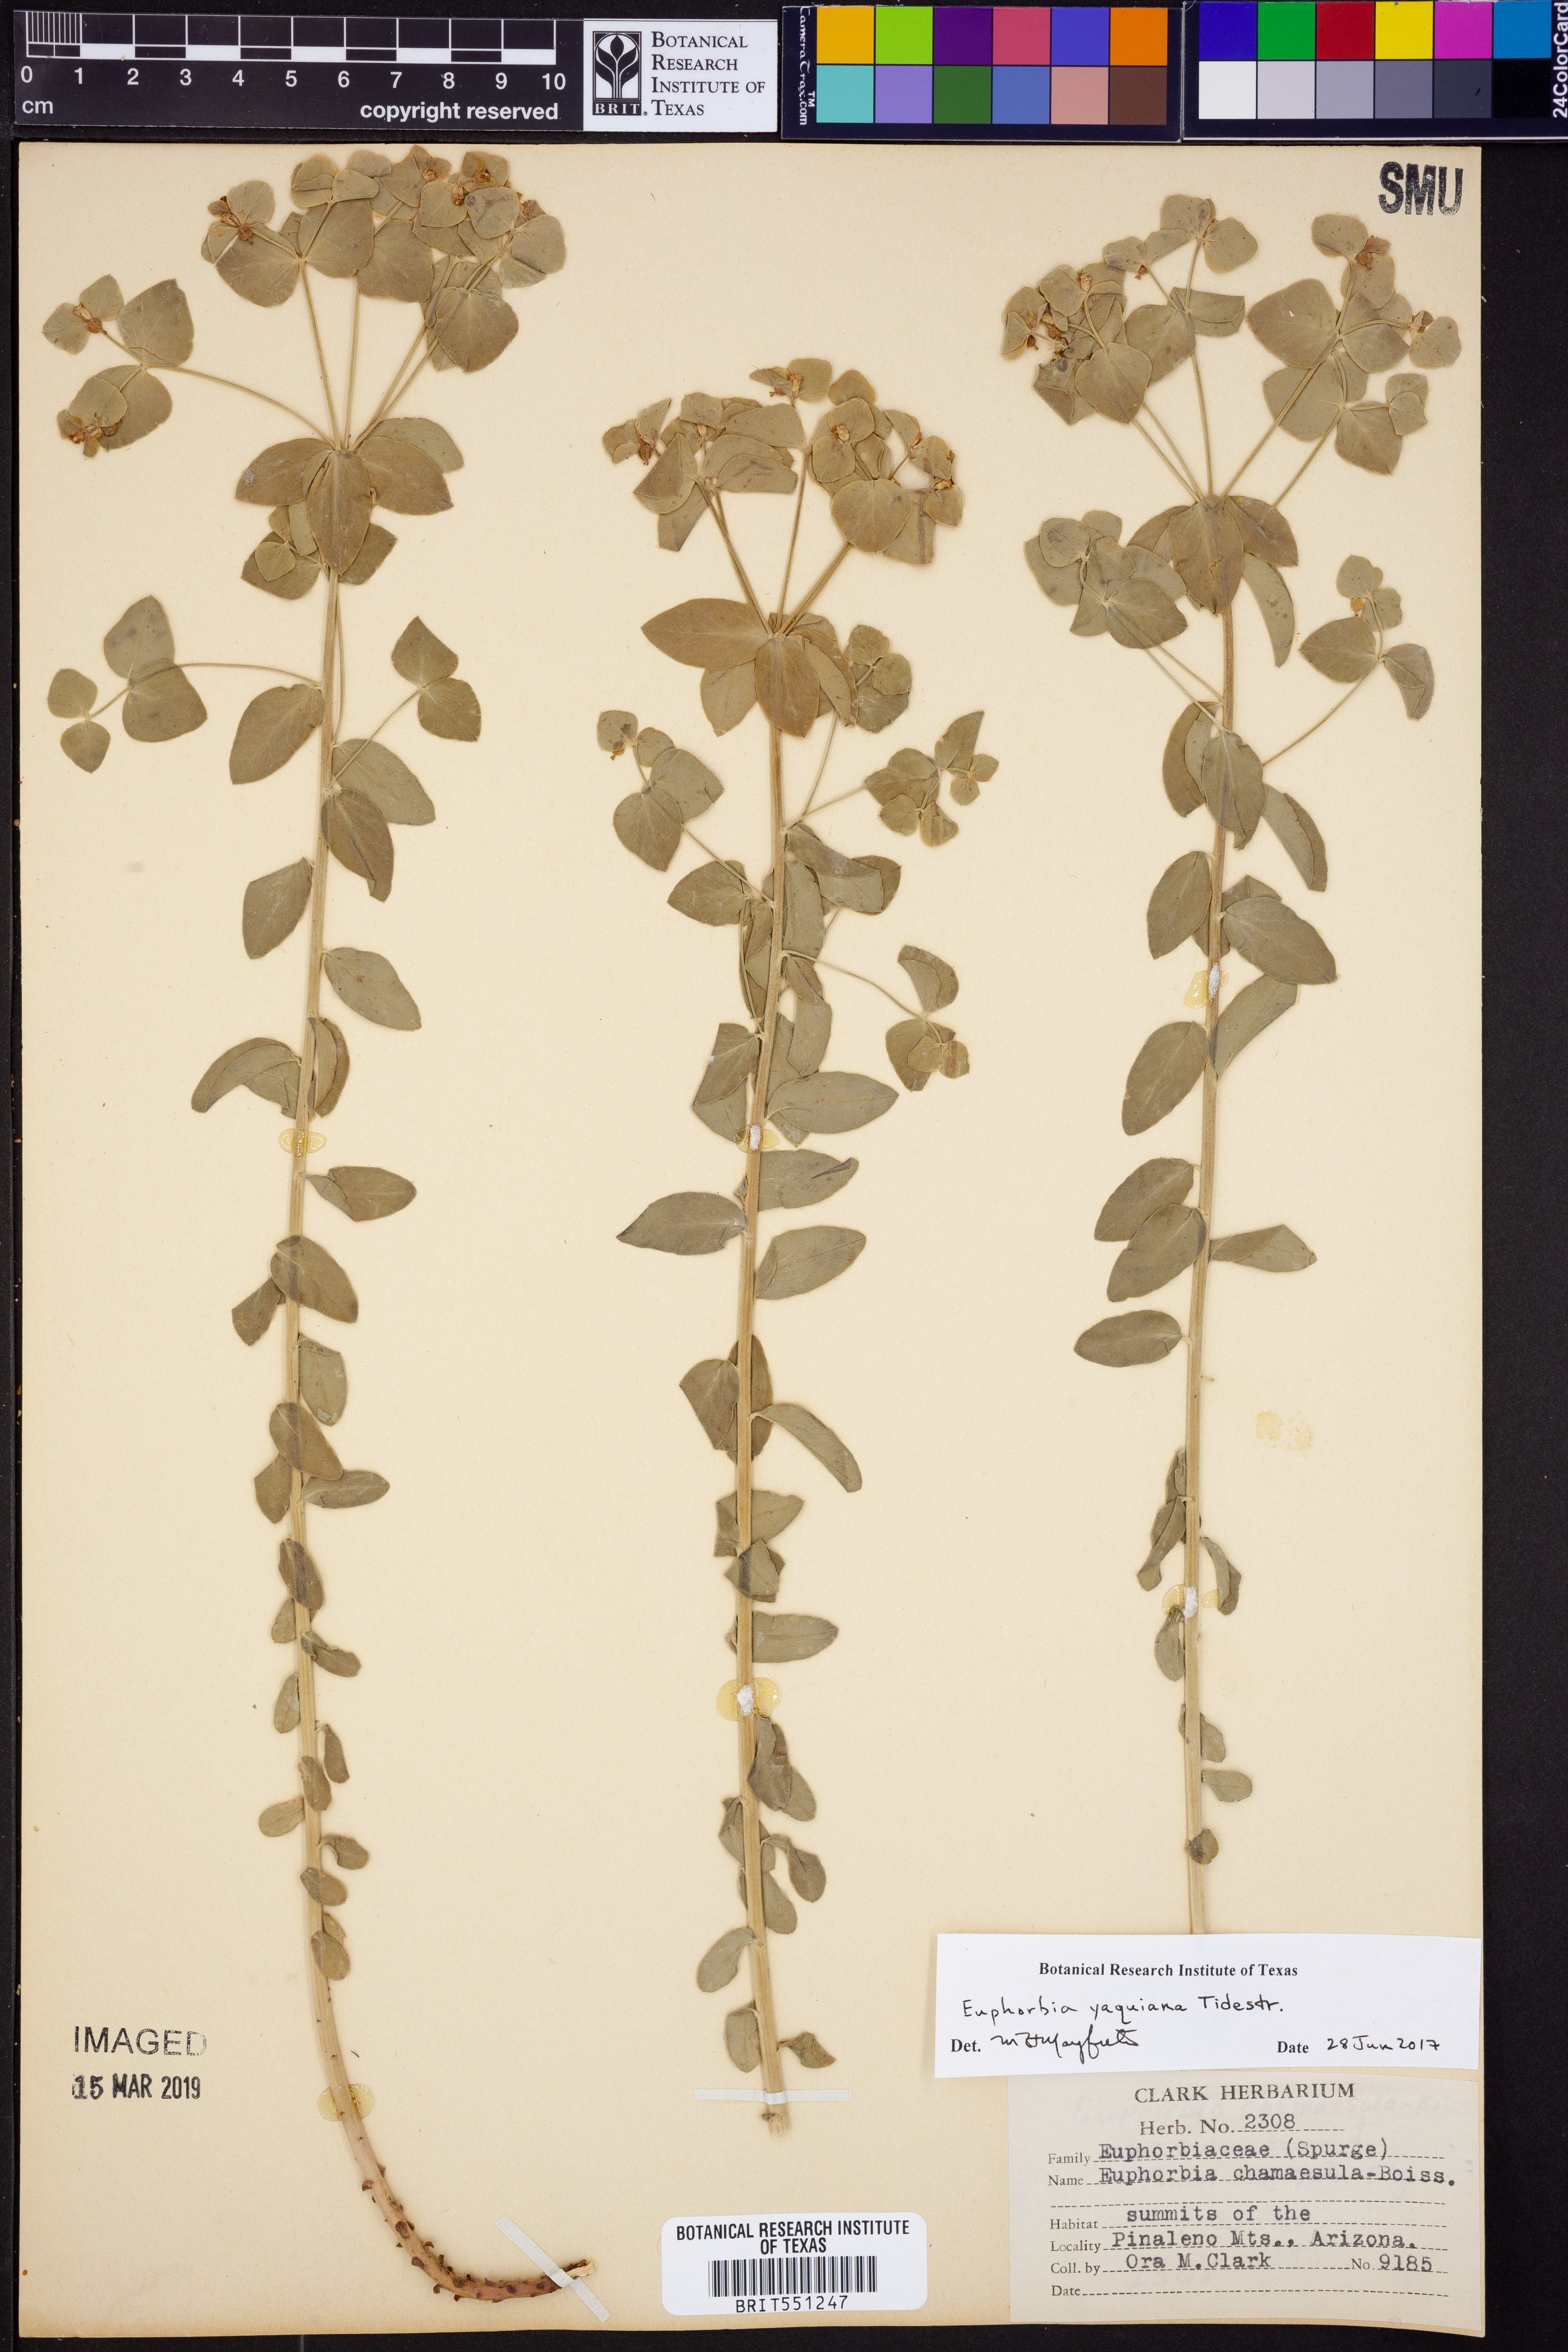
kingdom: Plantae
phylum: Tracheophyta
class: Magnoliopsida
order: Malpighiales
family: Euphorbiaceae
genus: Euphorbia
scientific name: Euphorbia yaquiana
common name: Hairy mojave spurge
